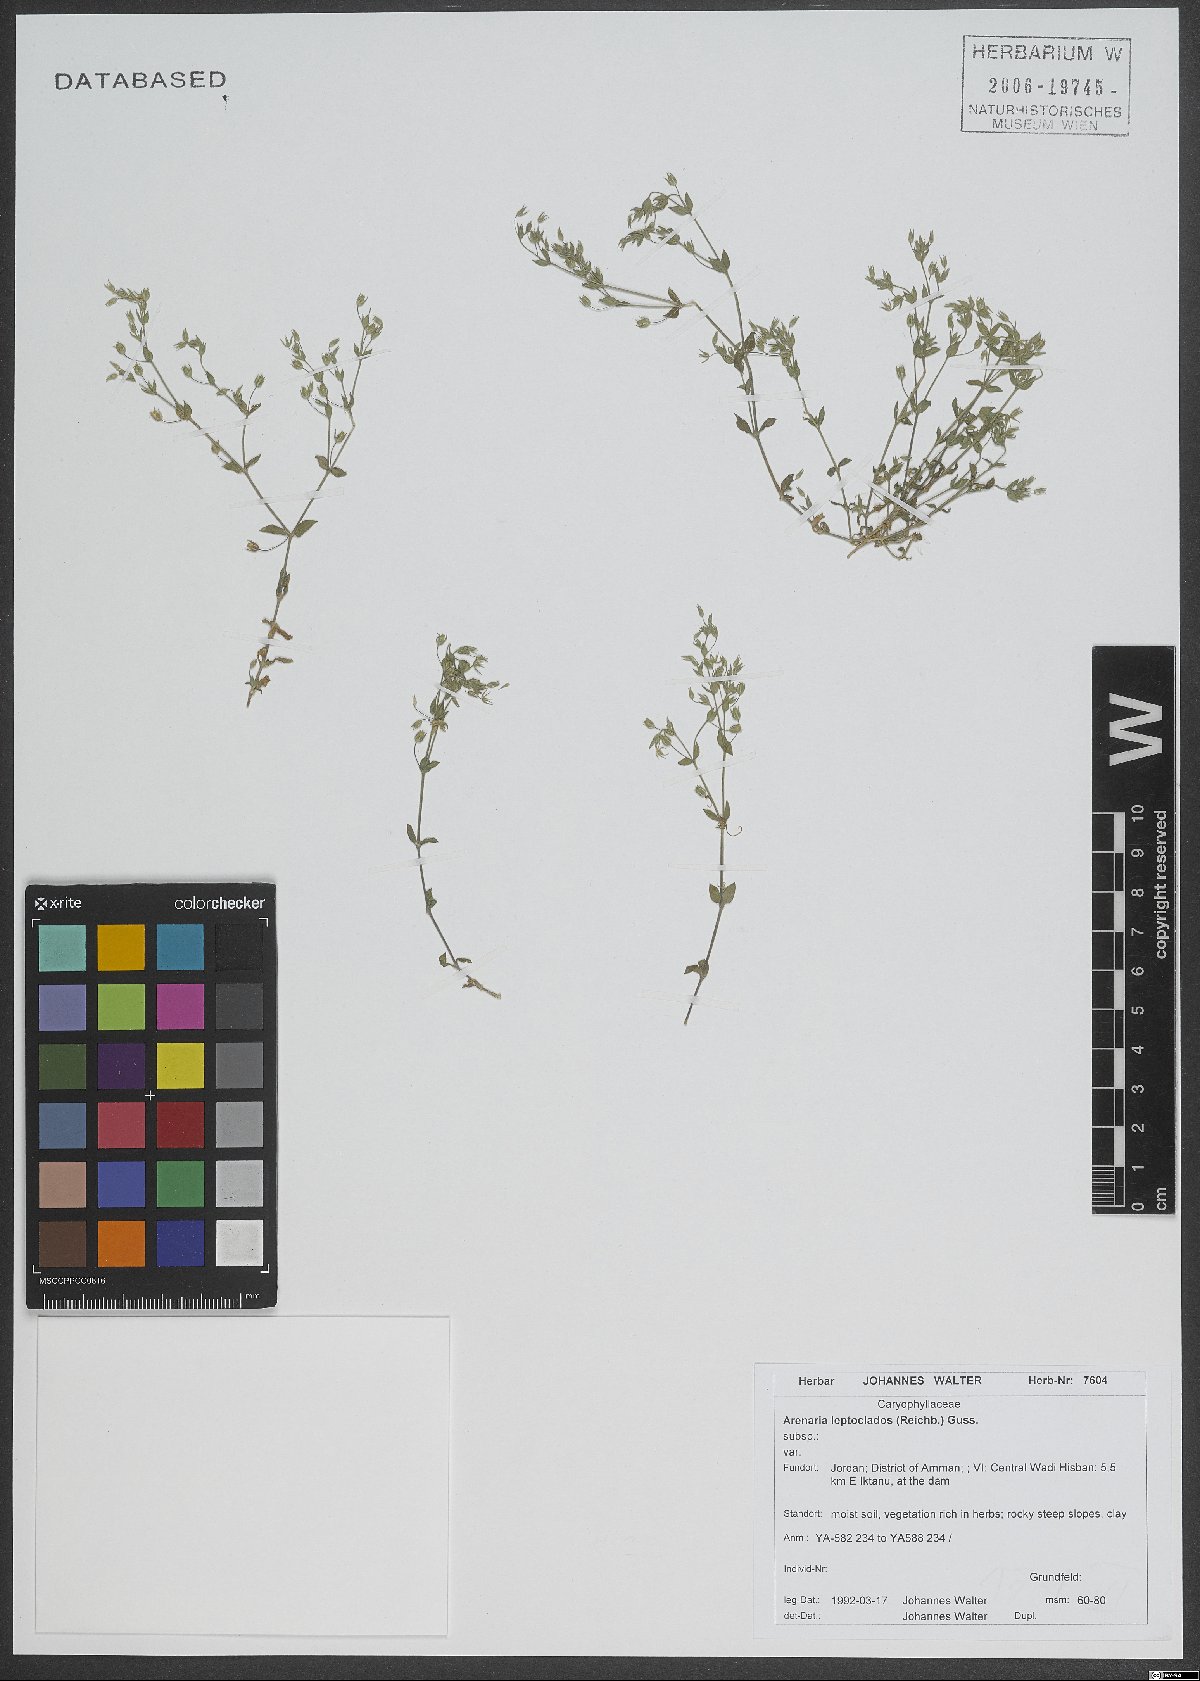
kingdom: Plantae
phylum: Tracheophyta
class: Magnoliopsida
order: Caryophyllales
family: Caryophyllaceae
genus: Arenaria
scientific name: Arenaria leptoclados
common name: Thyme-leaved sandwort
